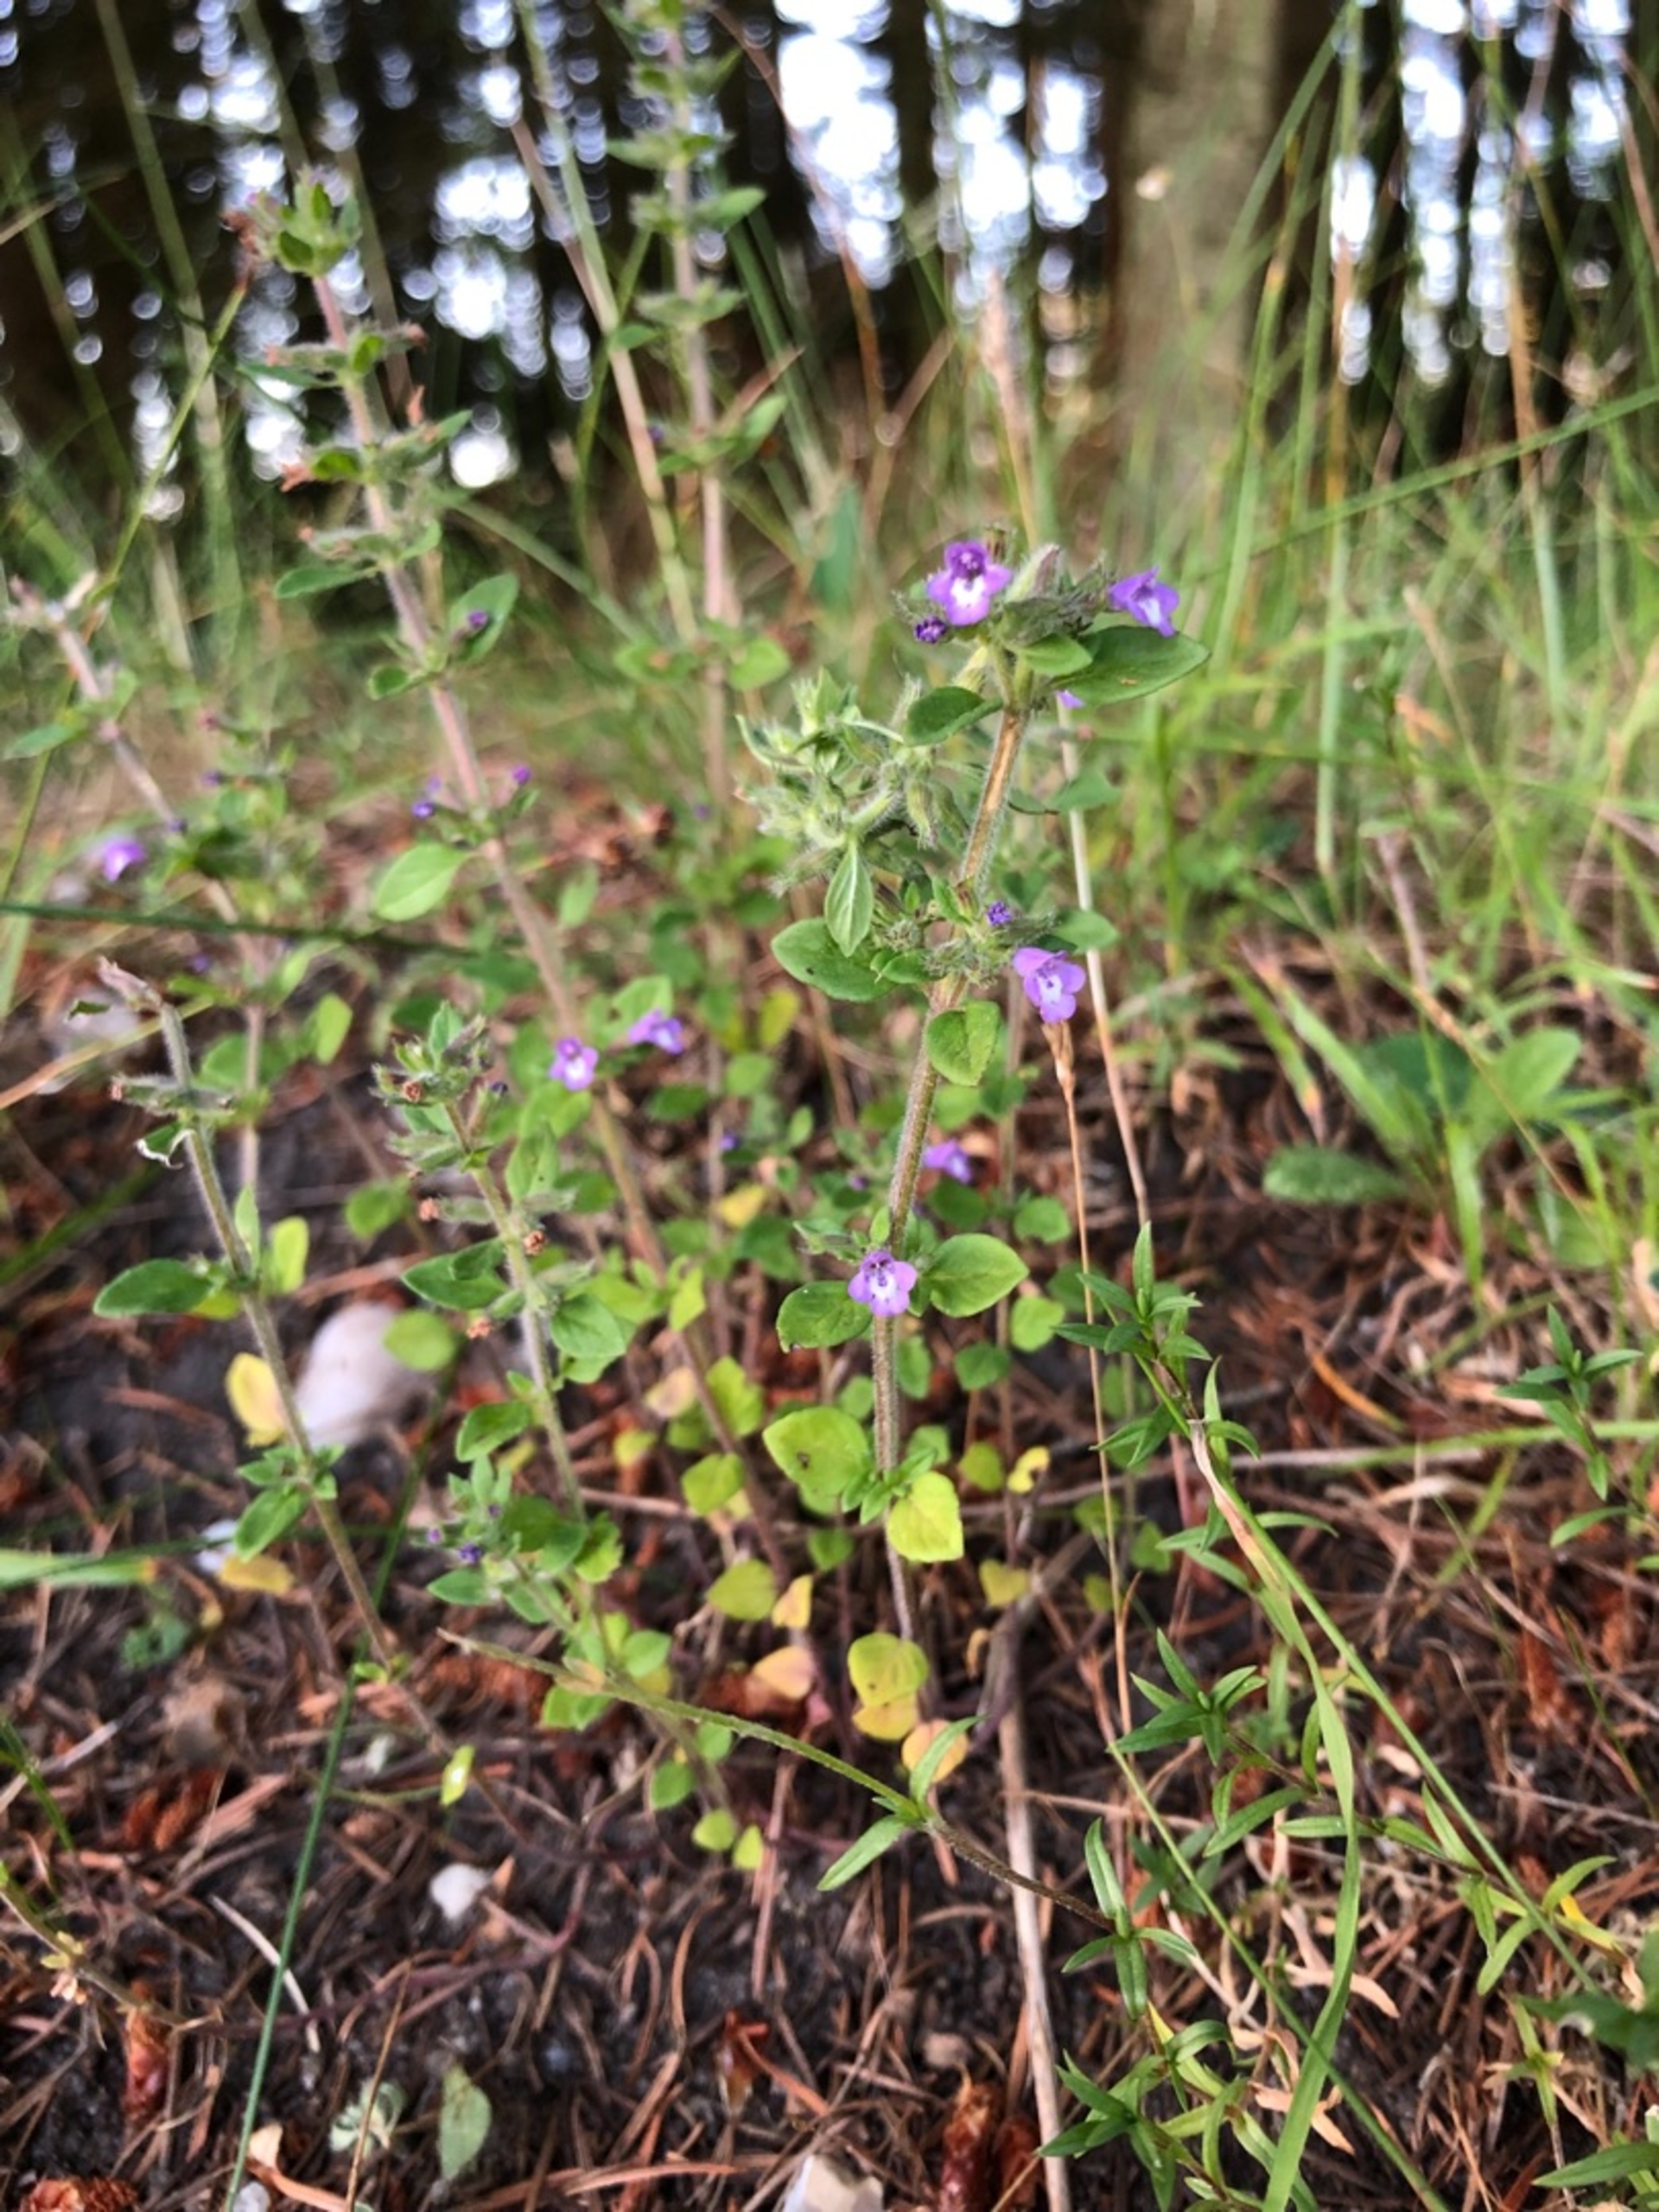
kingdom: Plantae
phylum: Tracheophyta
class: Magnoliopsida
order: Lamiales
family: Lamiaceae
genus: Clinopodium
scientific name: Clinopodium acinos
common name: Voldtimian
